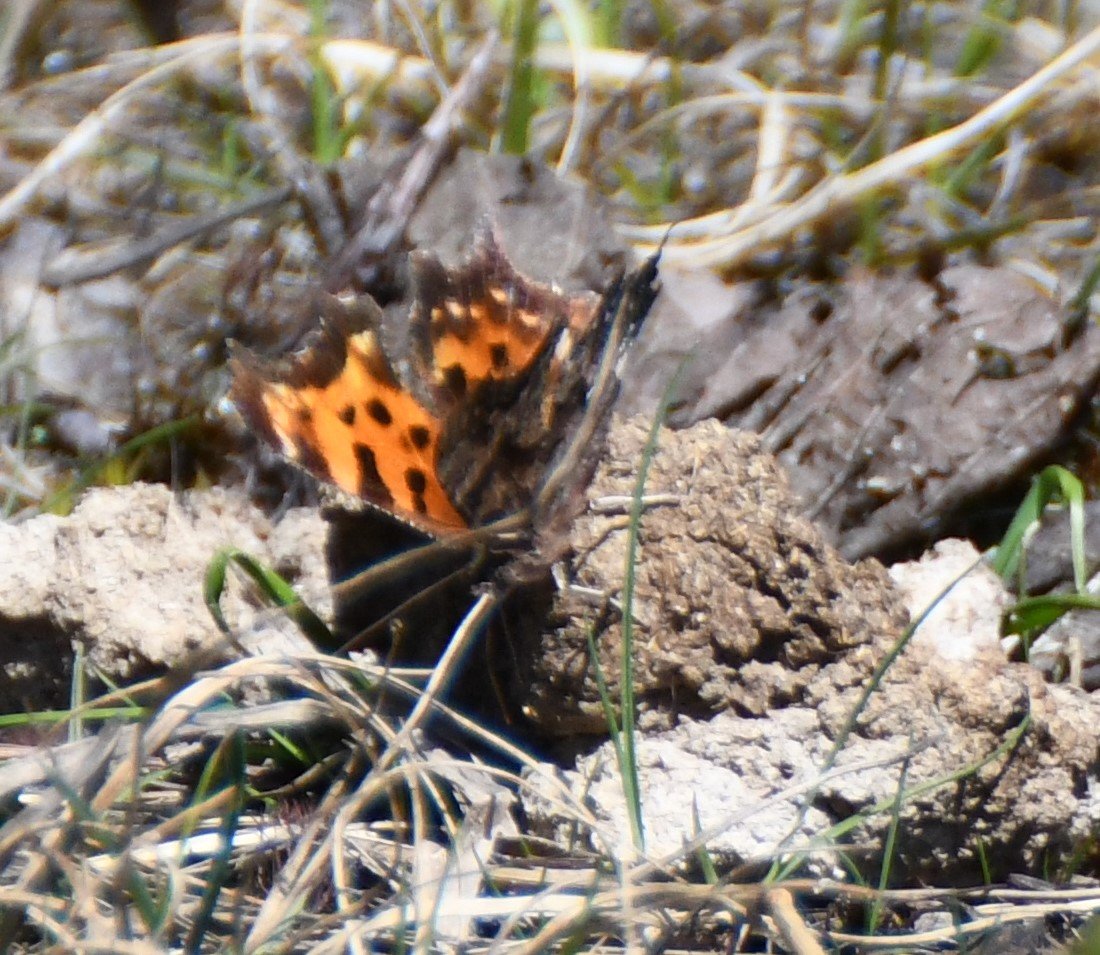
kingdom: Animalia
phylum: Arthropoda
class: Insecta
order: Lepidoptera
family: Nymphalidae
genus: Polygonia
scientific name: Polygonia faunus
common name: Green Comma
